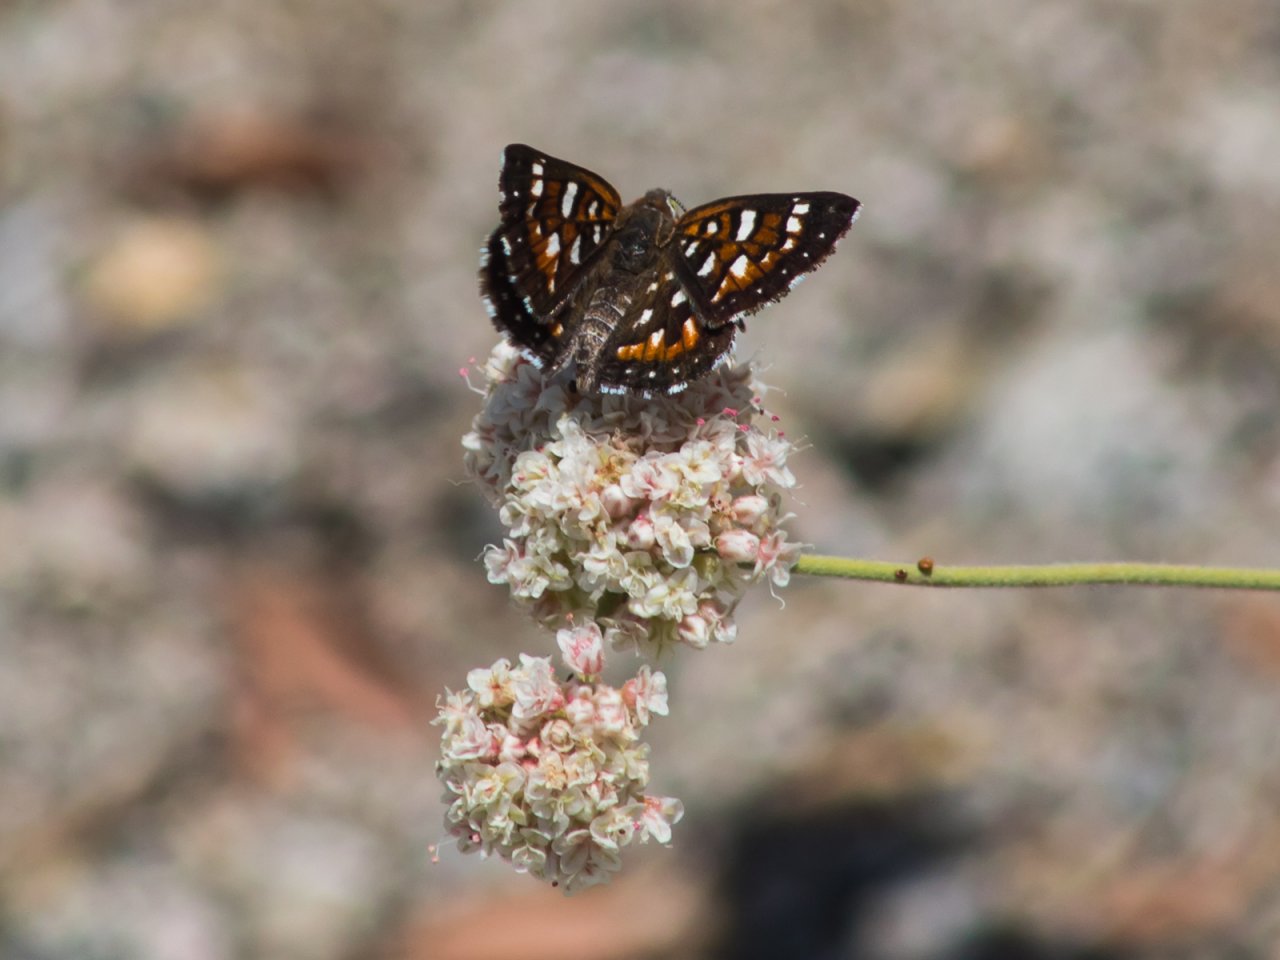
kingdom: Animalia
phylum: Arthropoda
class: Insecta
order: Lepidoptera
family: Riodinidae
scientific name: Riodinidae
